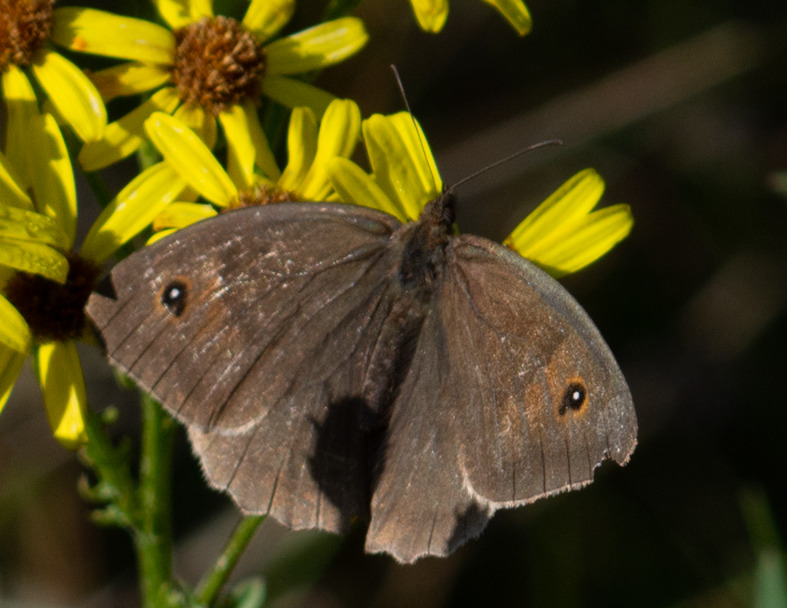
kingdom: Animalia
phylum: Arthropoda
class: Insecta
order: Lepidoptera
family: Nymphalidae
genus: Maniola
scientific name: Maniola jurtina
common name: Græsrandøje
